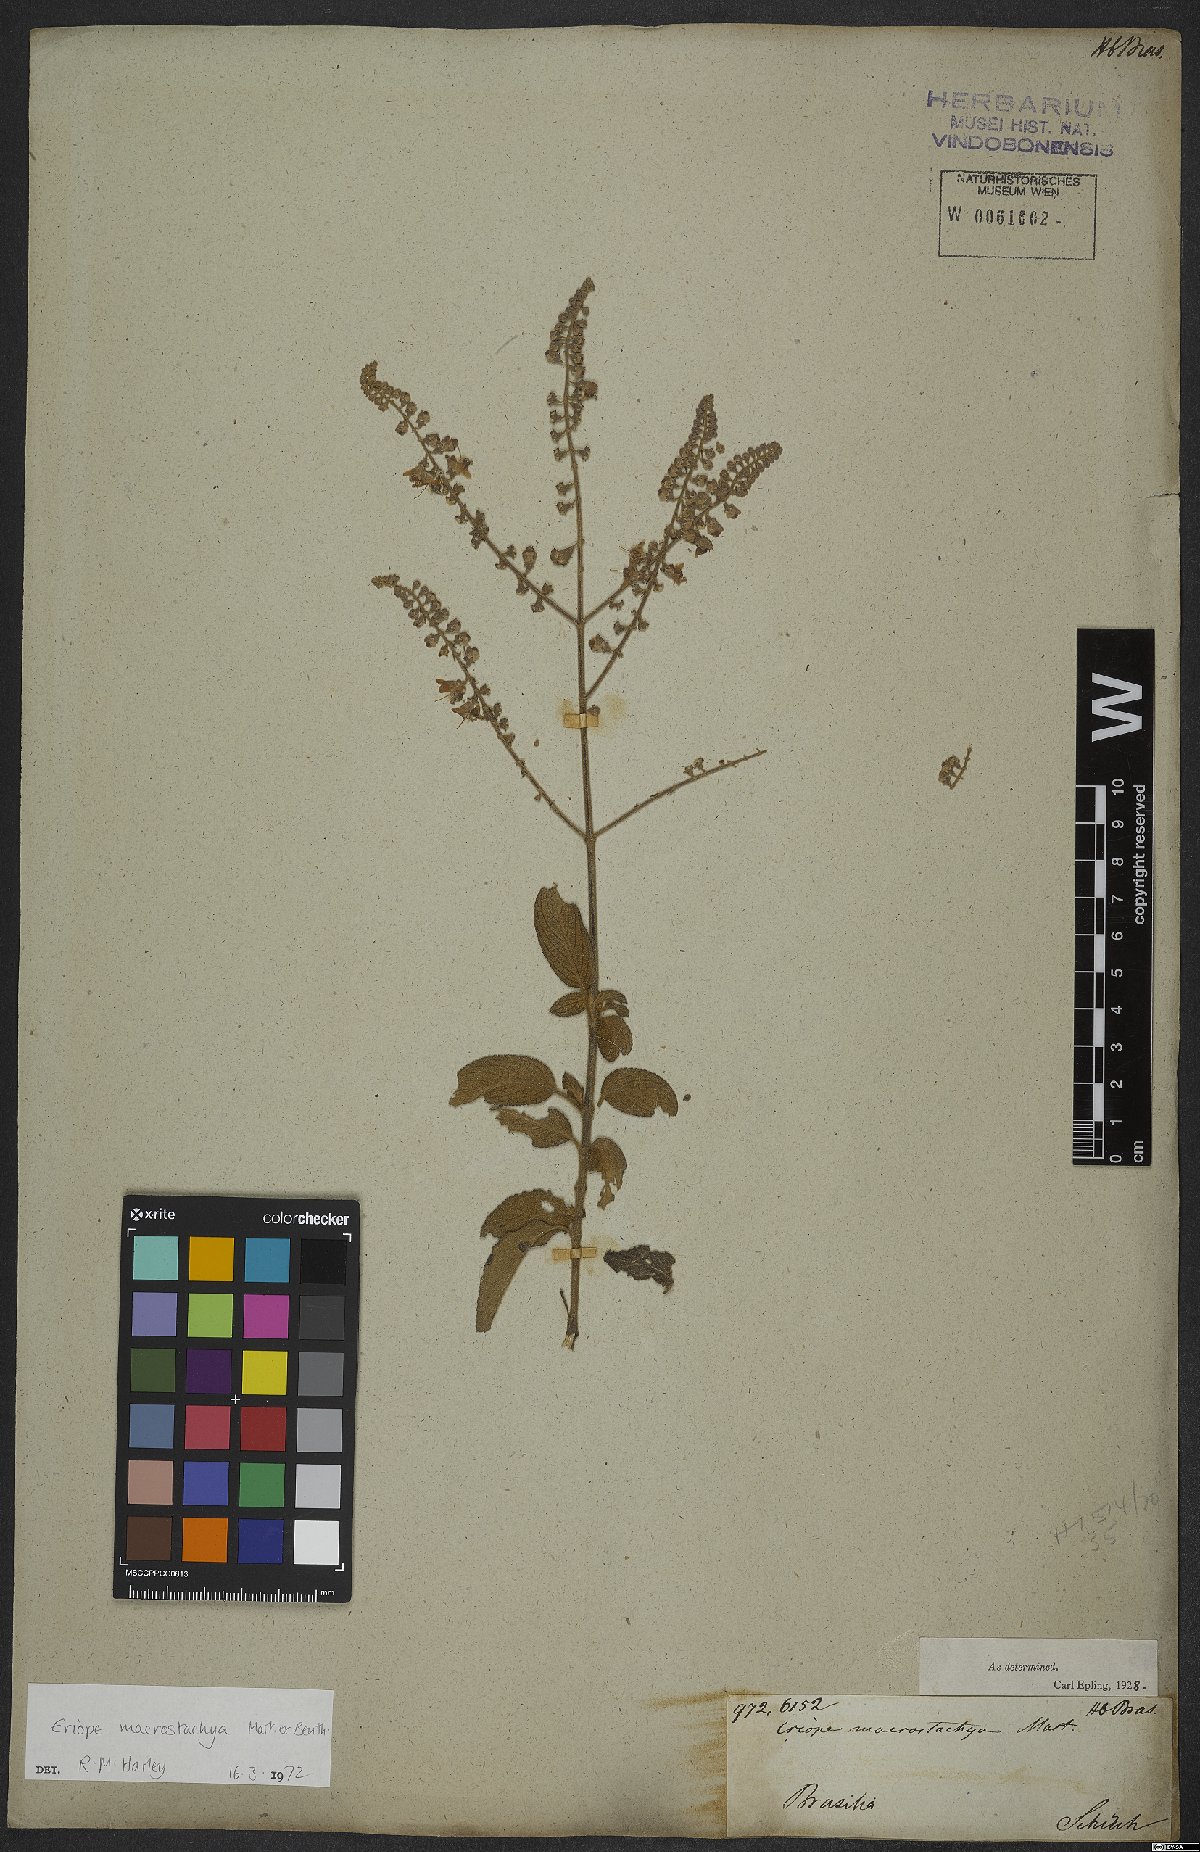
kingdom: Plantae
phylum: Tracheophyta
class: Magnoliopsida
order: Lamiales
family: Lamiaceae
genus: Eriope
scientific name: Eriope macrostachya
